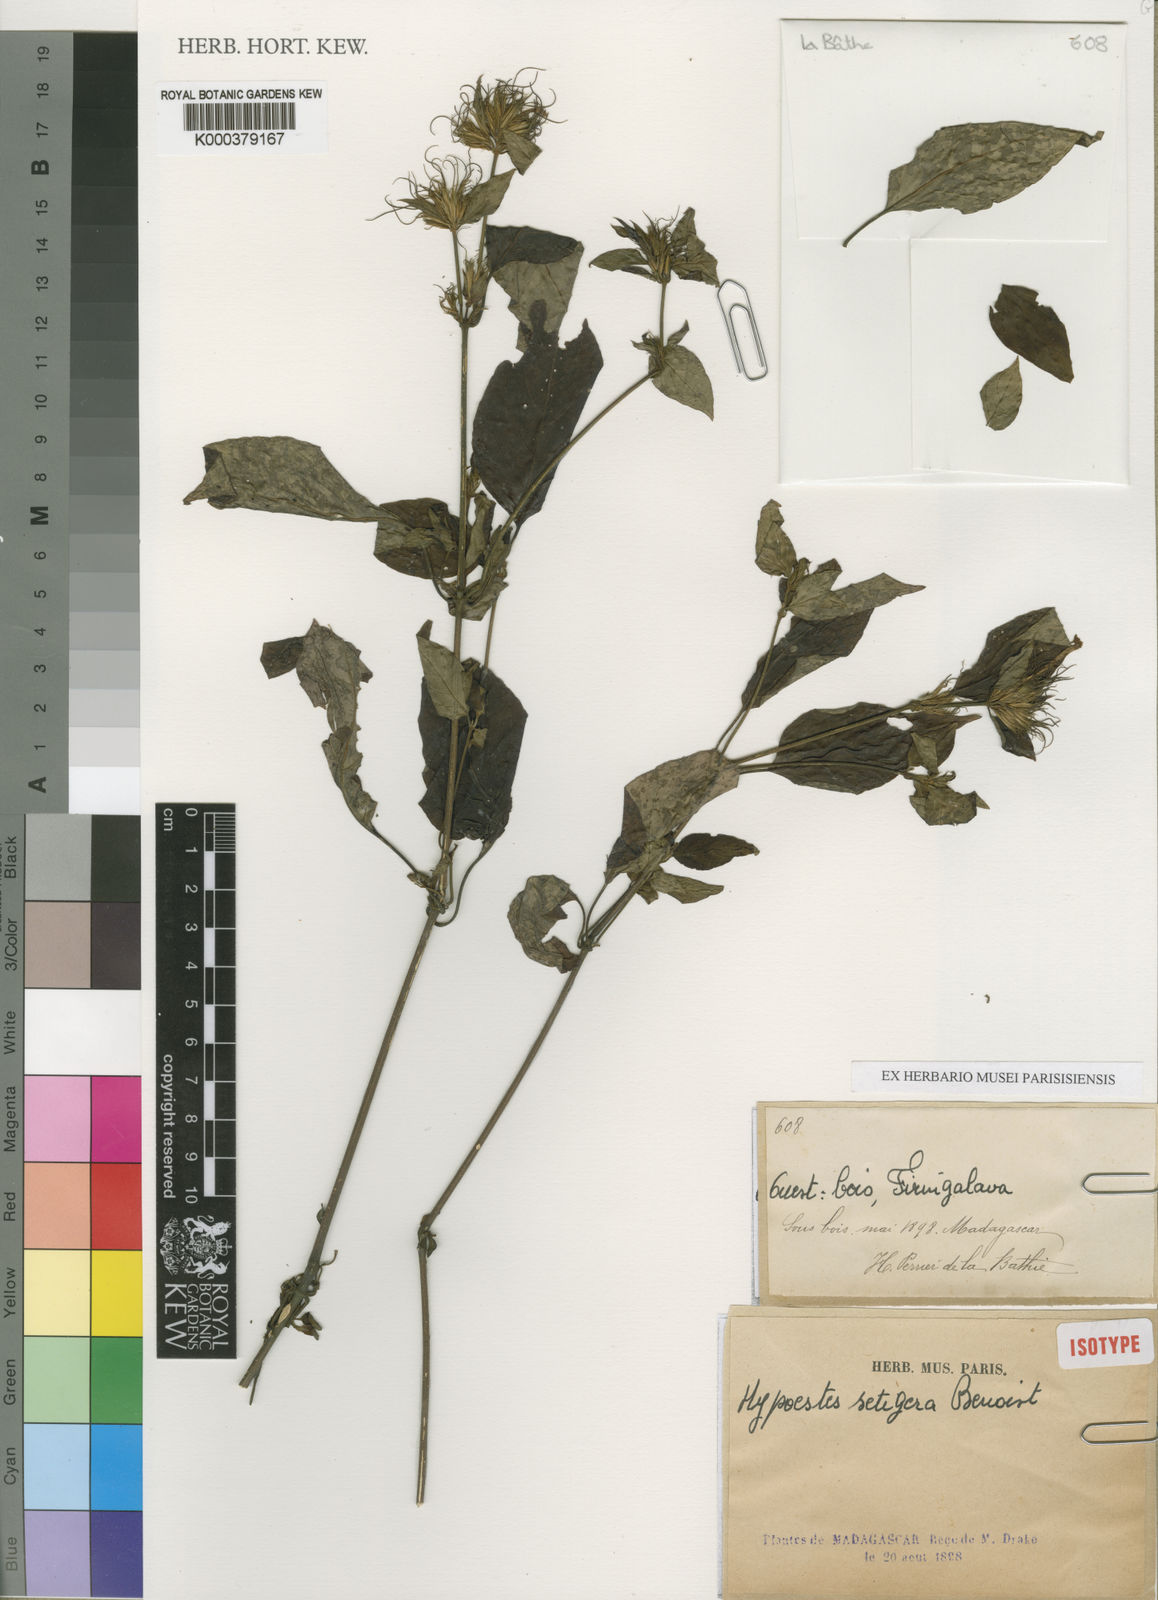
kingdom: Plantae
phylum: Tracheophyta
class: Magnoliopsida
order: Lamiales
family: Acanthaceae
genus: Hypoestes
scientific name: Hypoestes setigera
